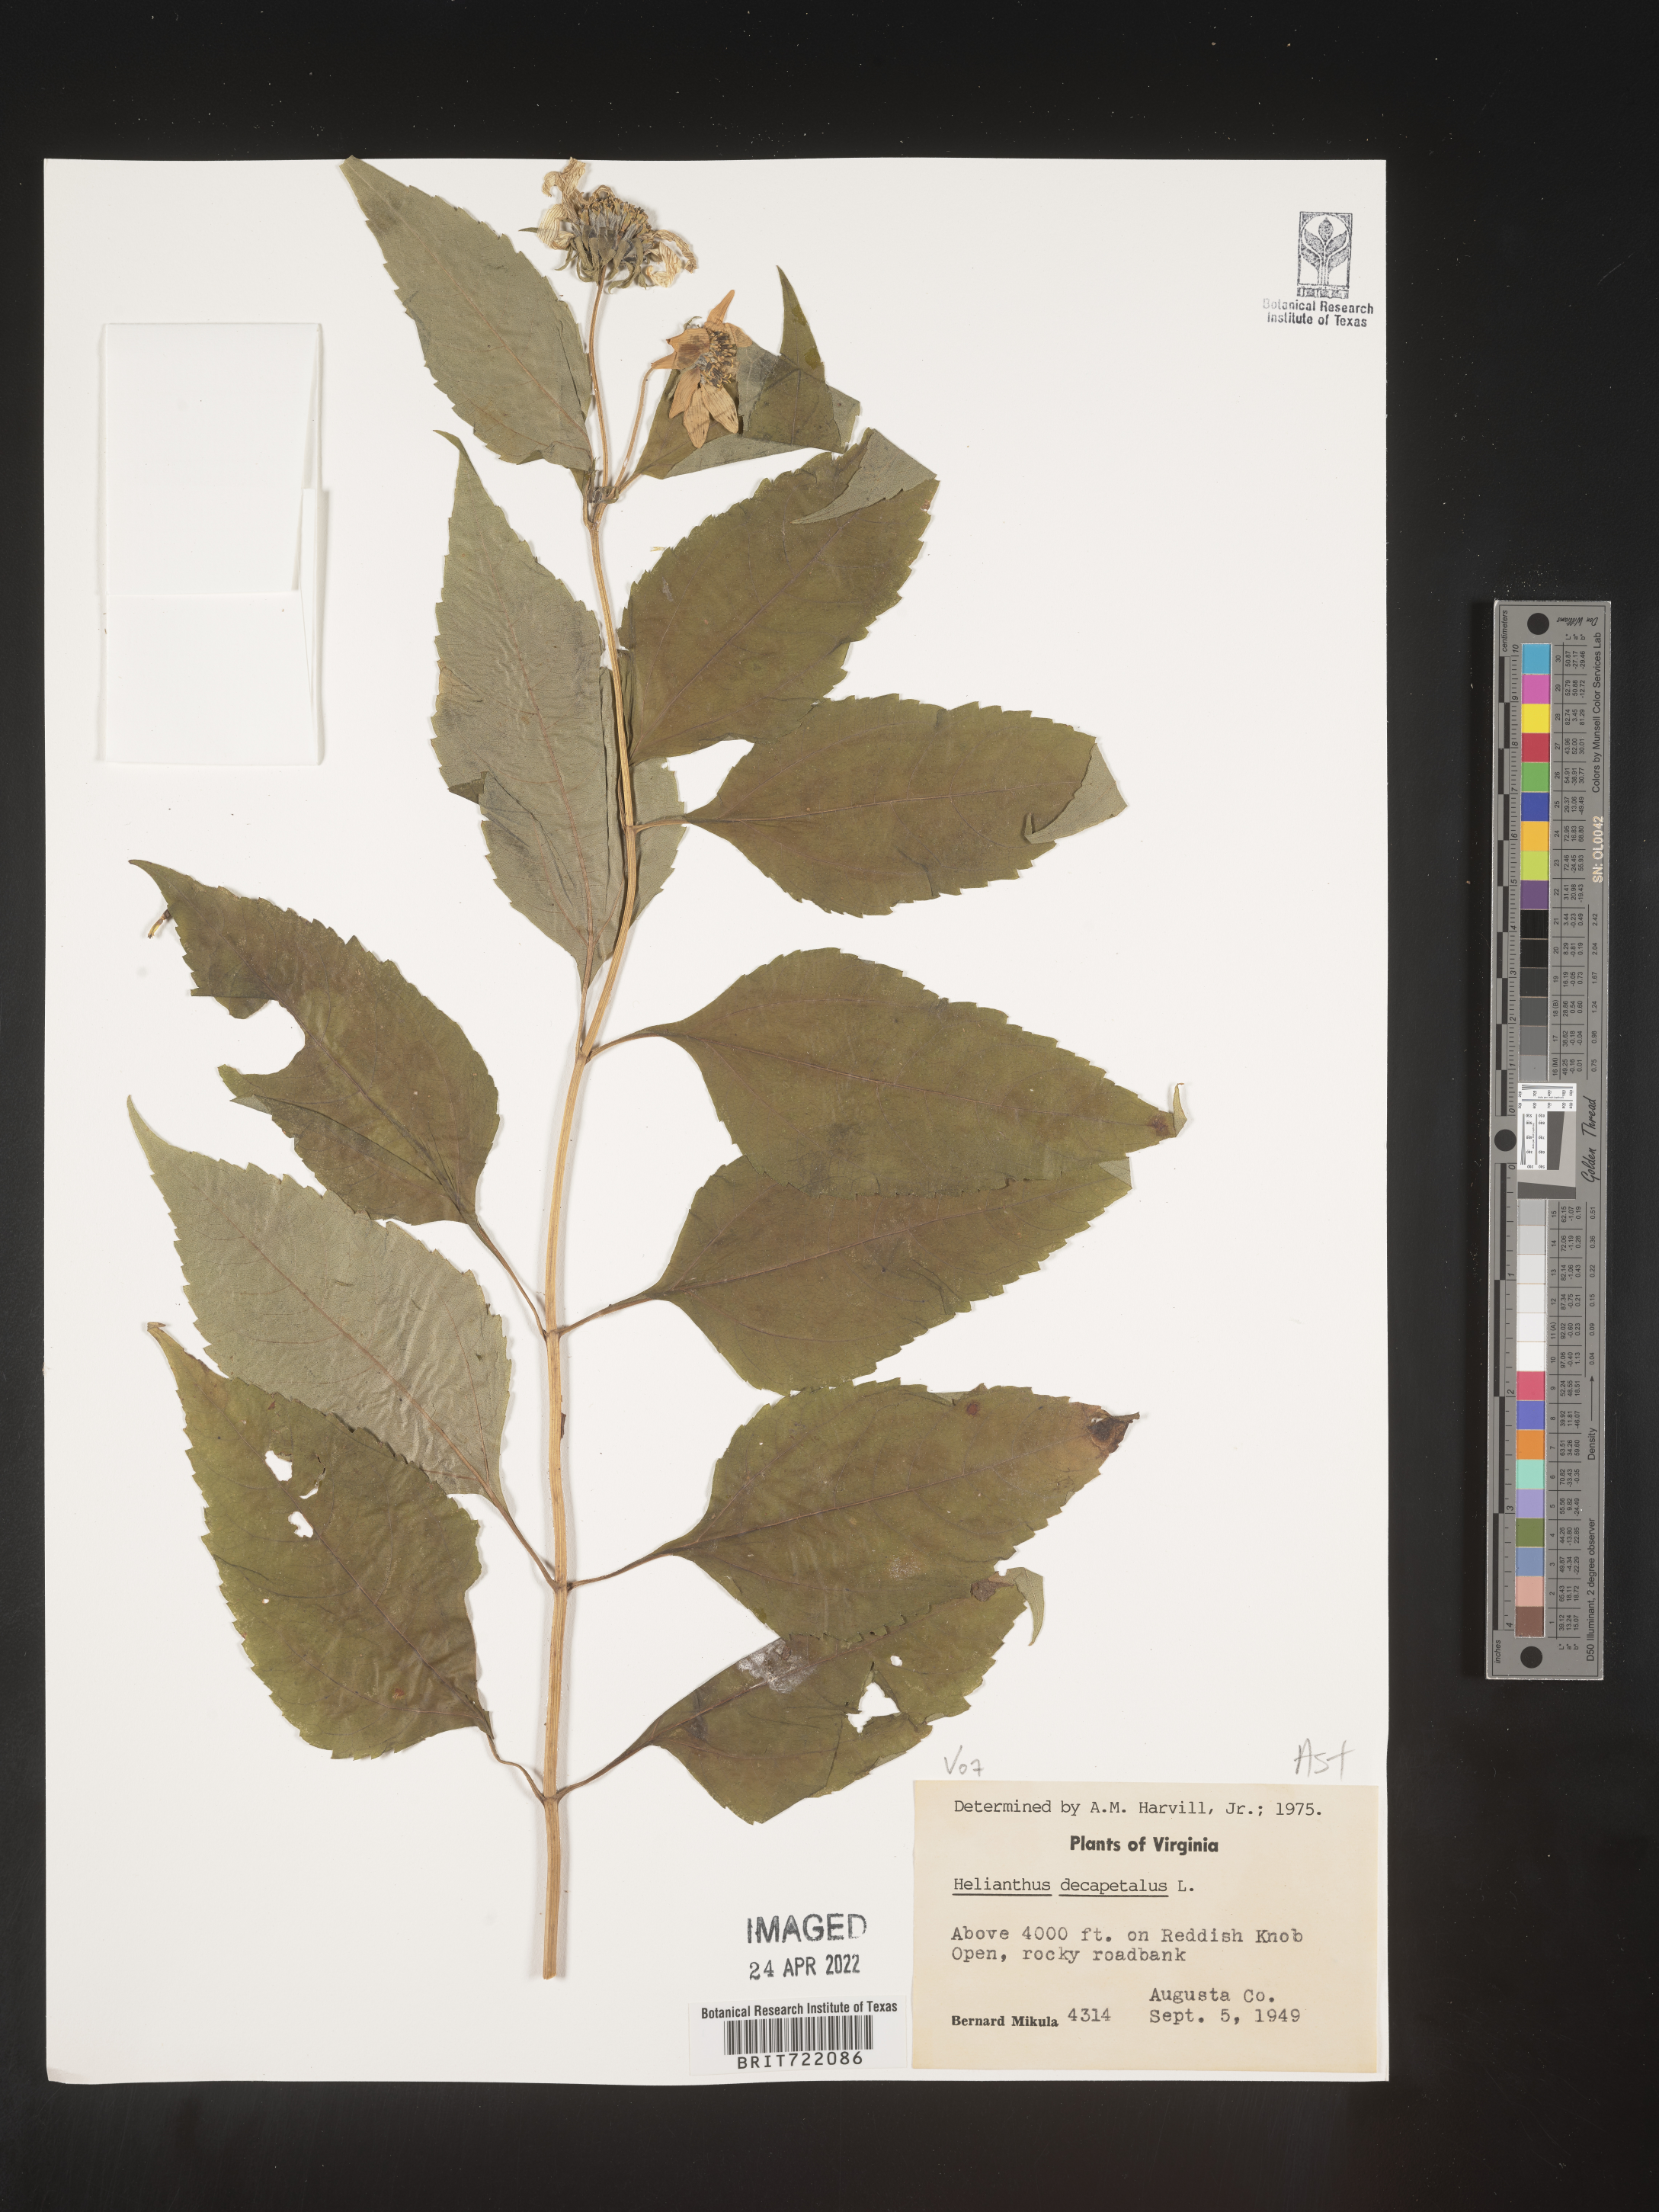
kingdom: Plantae
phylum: Tracheophyta
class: Magnoliopsida
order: Asterales
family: Asteraceae
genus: Helianthus
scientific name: Helianthus decapetalus
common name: Thin-leaved sunflower
